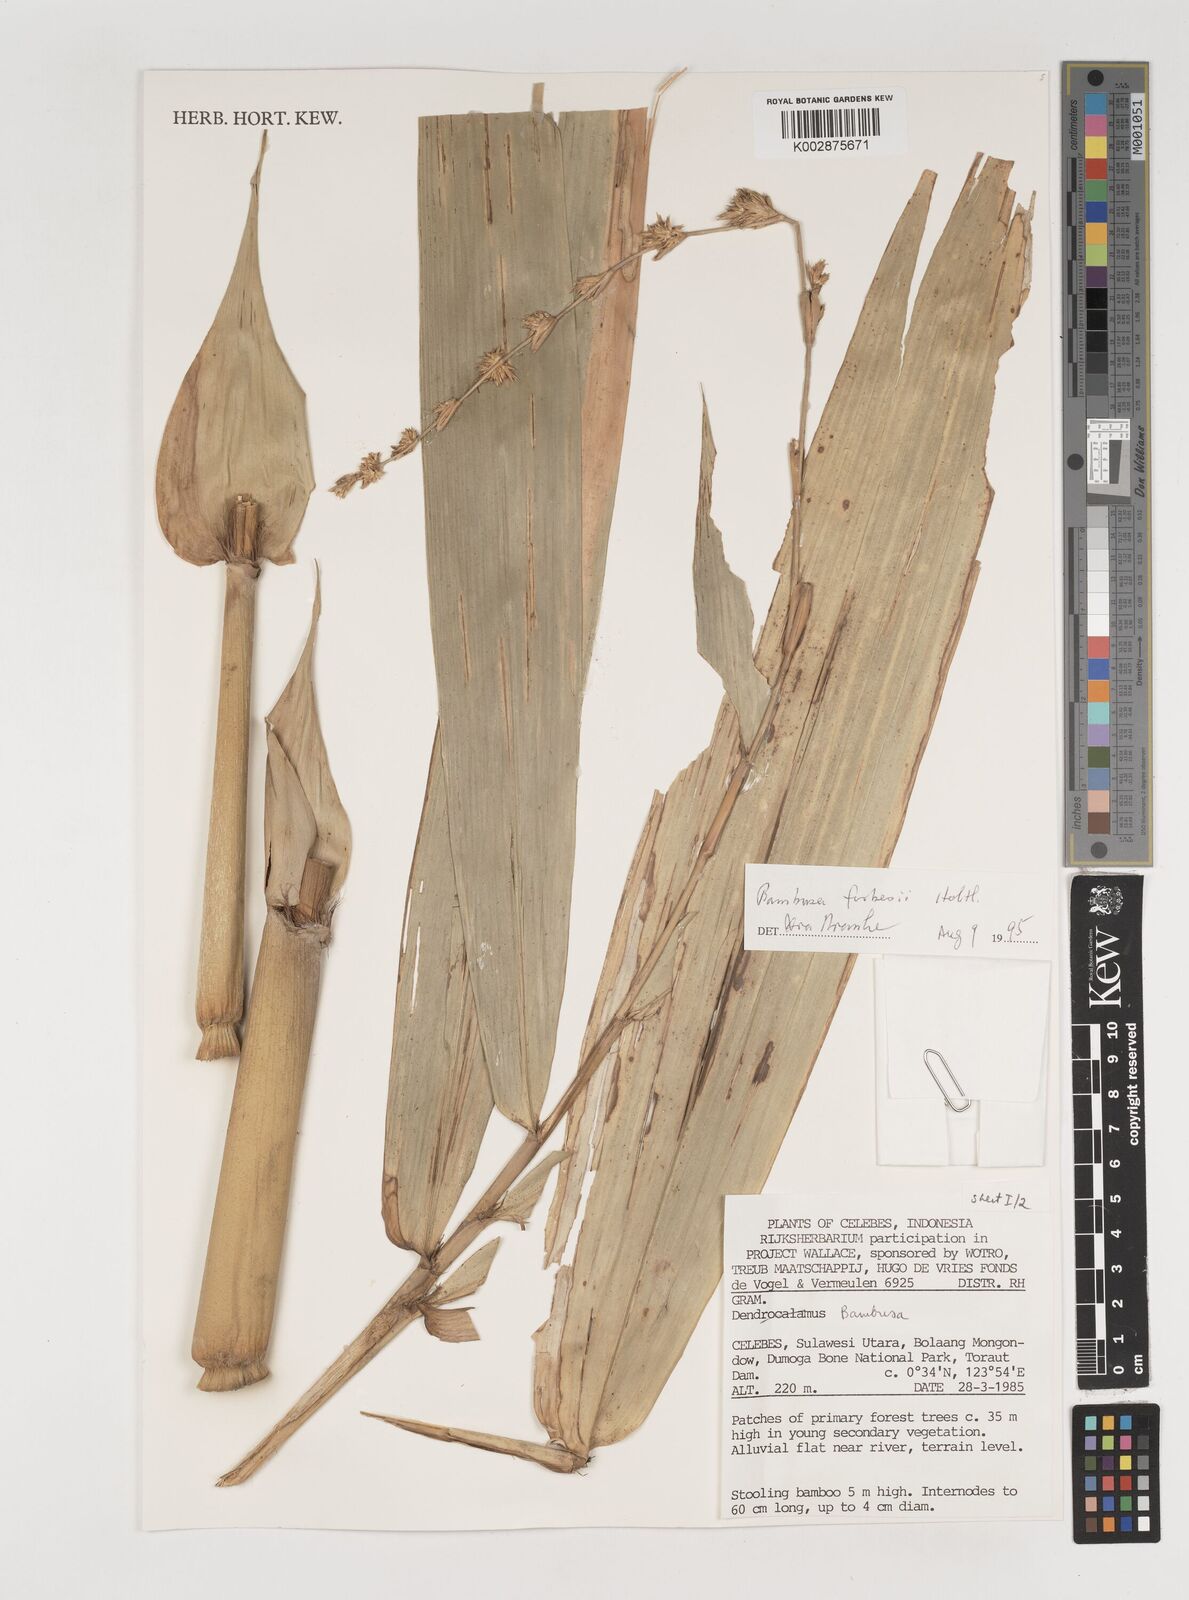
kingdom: Plantae
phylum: Tracheophyta
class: Liliopsida
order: Poales
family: Poaceae
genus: Neololeba
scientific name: Neololeba atra
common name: Cape bamboo
